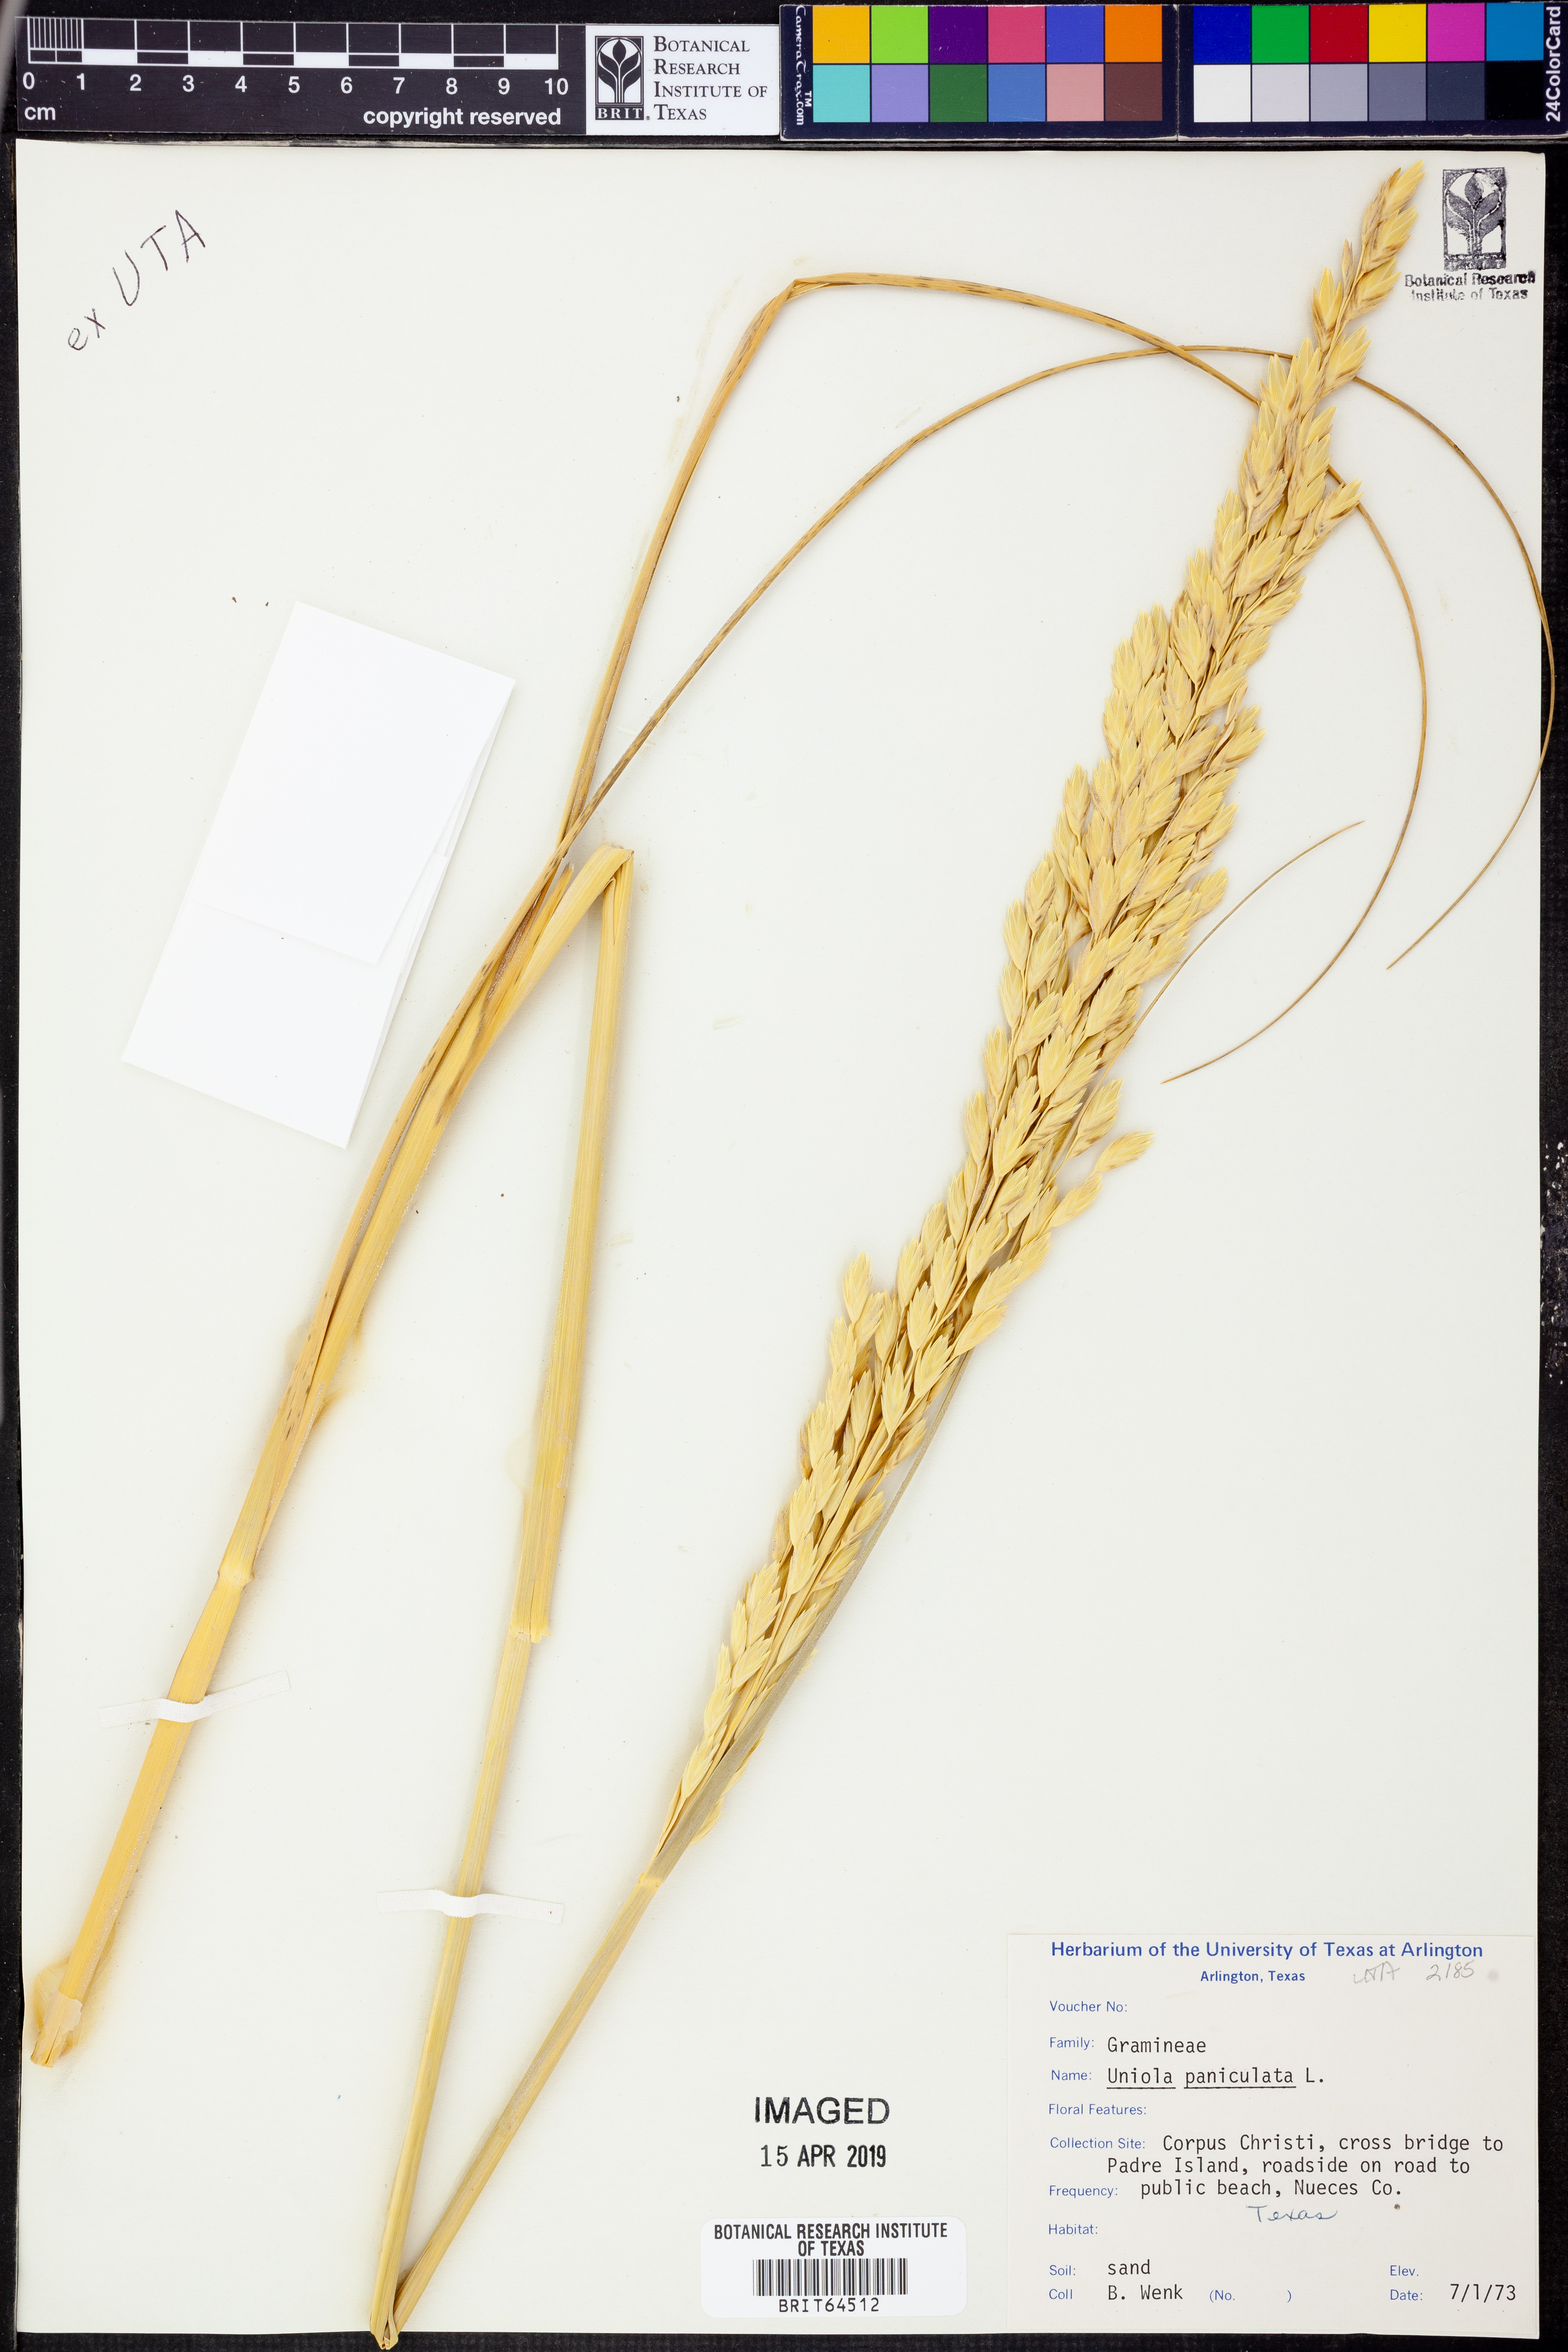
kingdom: Plantae
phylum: Tracheophyta
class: Liliopsida
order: Poales
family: Poaceae
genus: Uniola
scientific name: Uniola paniculata
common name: Seaside-oats
